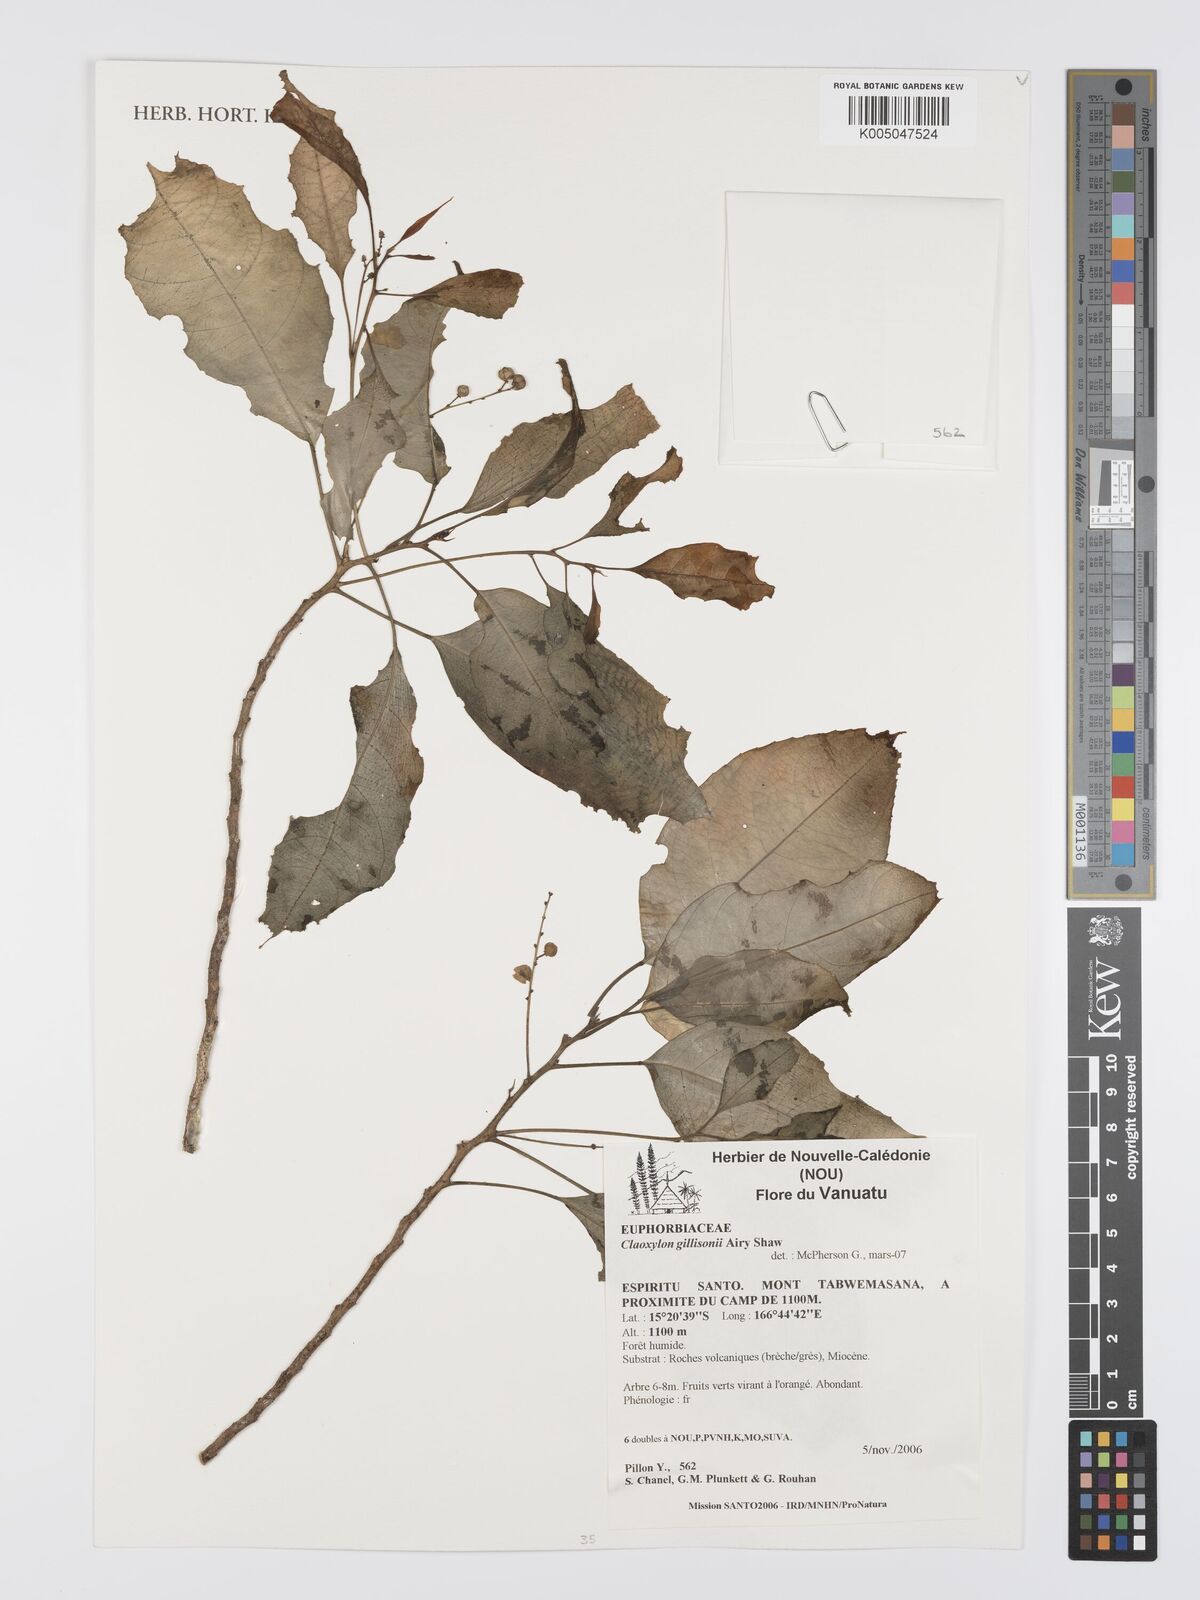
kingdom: Plantae
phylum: Tracheophyta
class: Magnoliopsida
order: Malpighiales
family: Euphorbiaceae
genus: Claoxylon
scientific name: Claoxylon gillisonii
